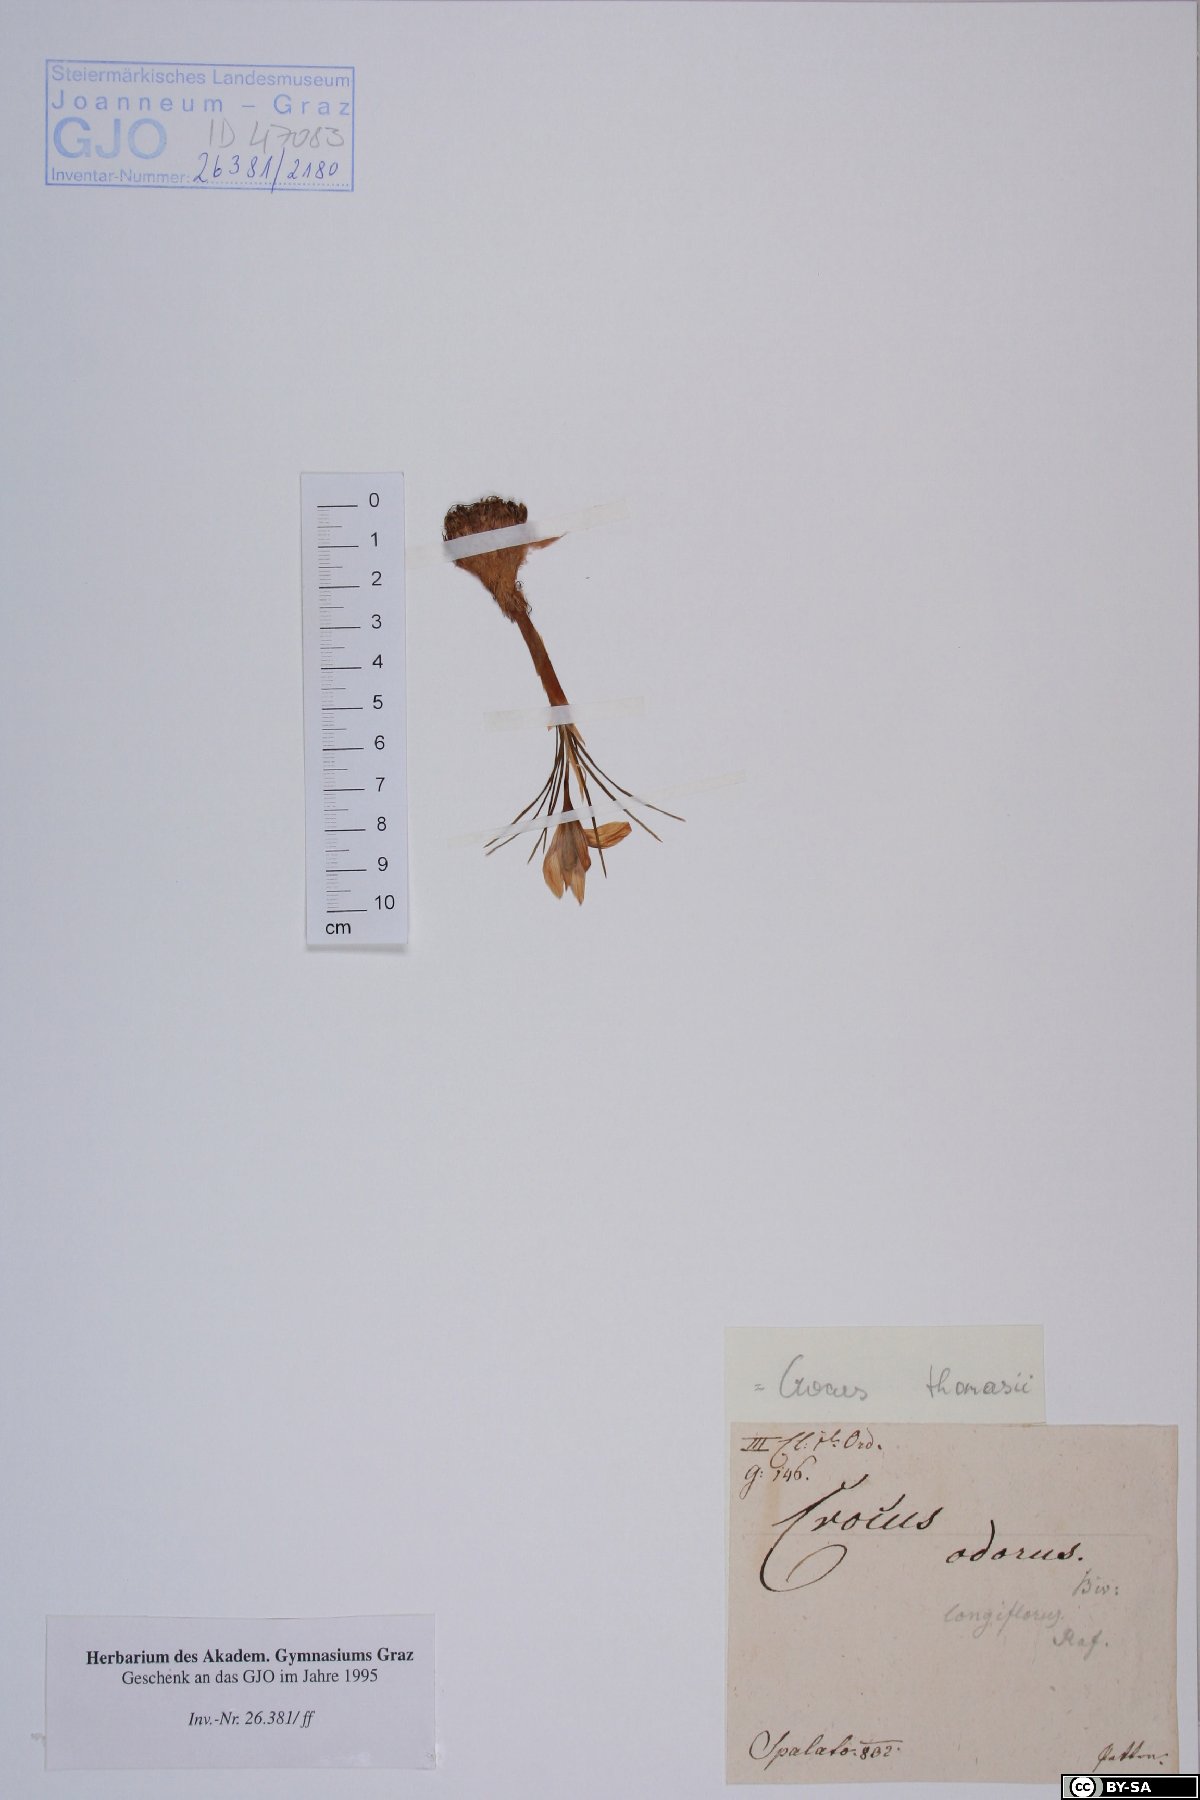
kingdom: Plantae
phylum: Tracheophyta
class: Liliopsida
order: Asparagales
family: Iridaceae
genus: Crocus
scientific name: Crocus longiflorus
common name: Italian crocus
